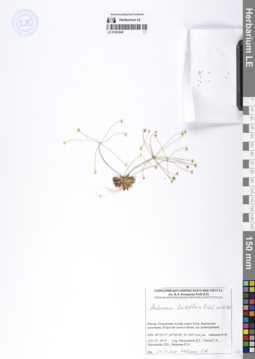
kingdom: Plantae
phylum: Tracheophyta
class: Magnoliopsida
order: Ericales
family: Primulaceae
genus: Androsace
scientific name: Androsace lactiflora
